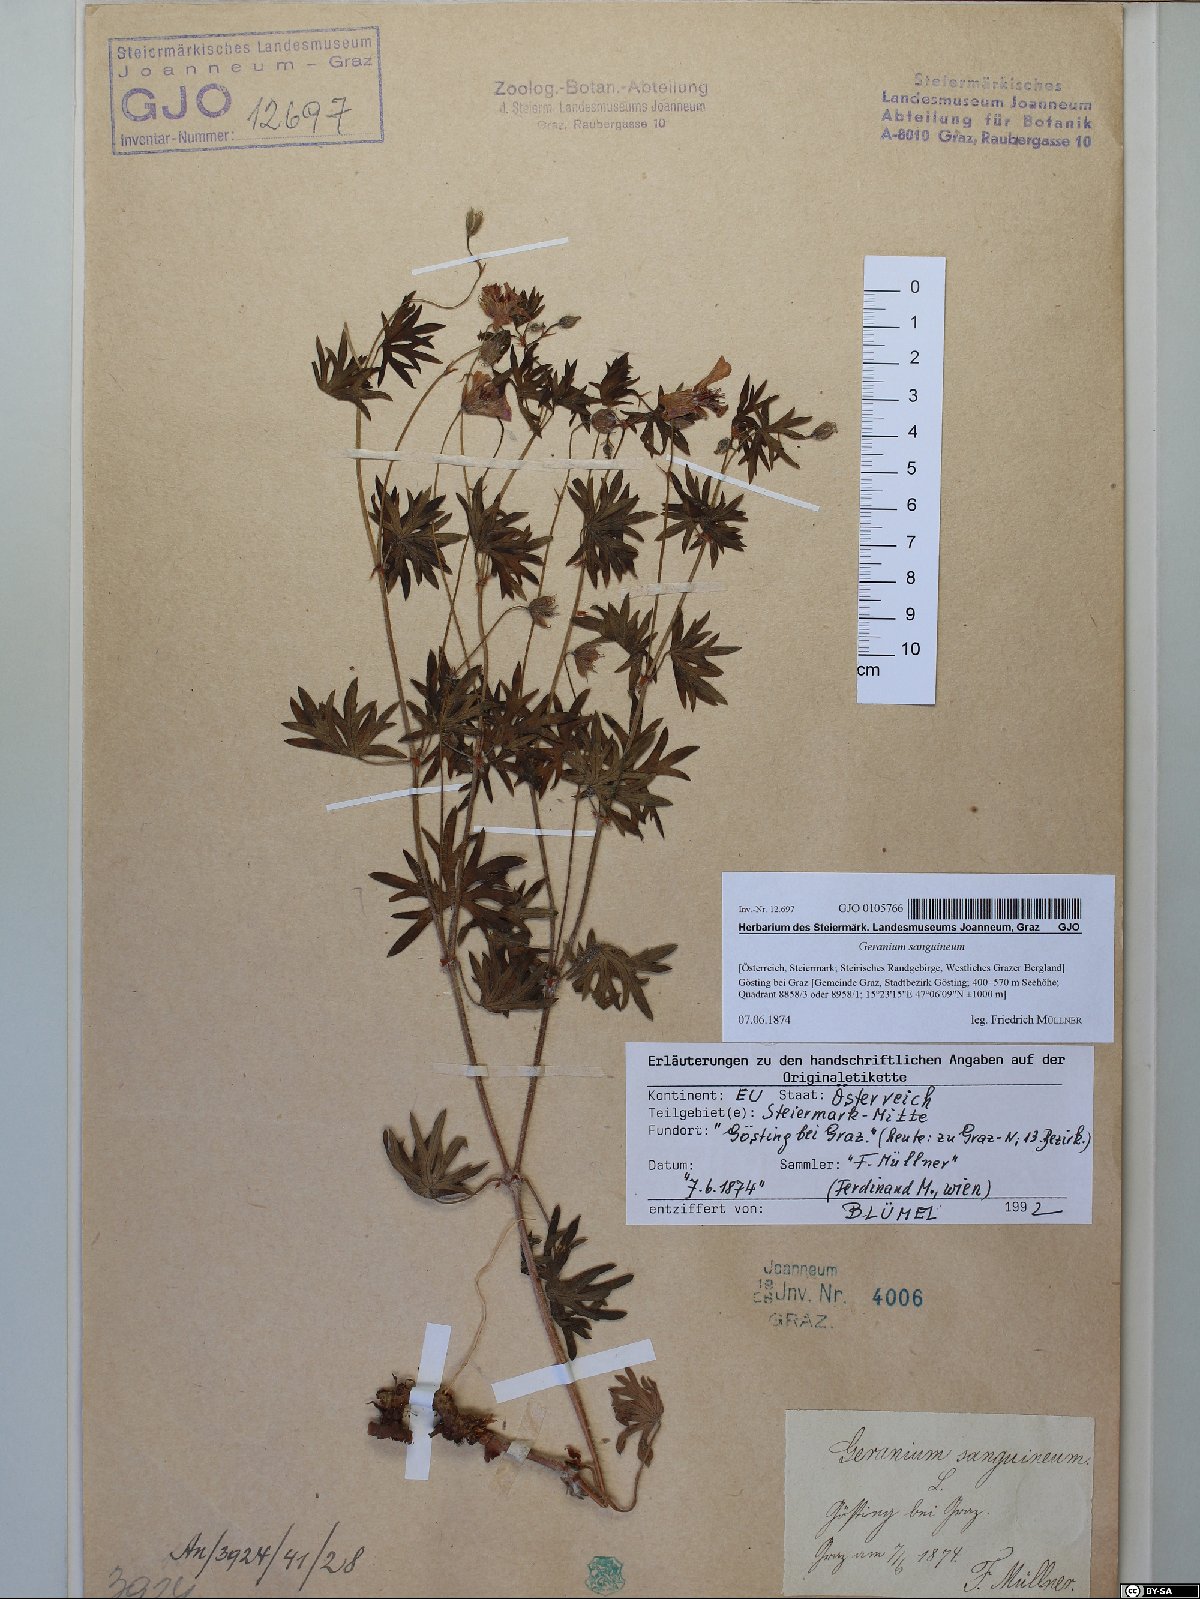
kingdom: Plantae
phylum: Tracheophyta
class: Magnoliopsida
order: Geraniales
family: Geraniaceae
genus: Geranium
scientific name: Geranium sanguineum
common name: Bloody crane's-bill
